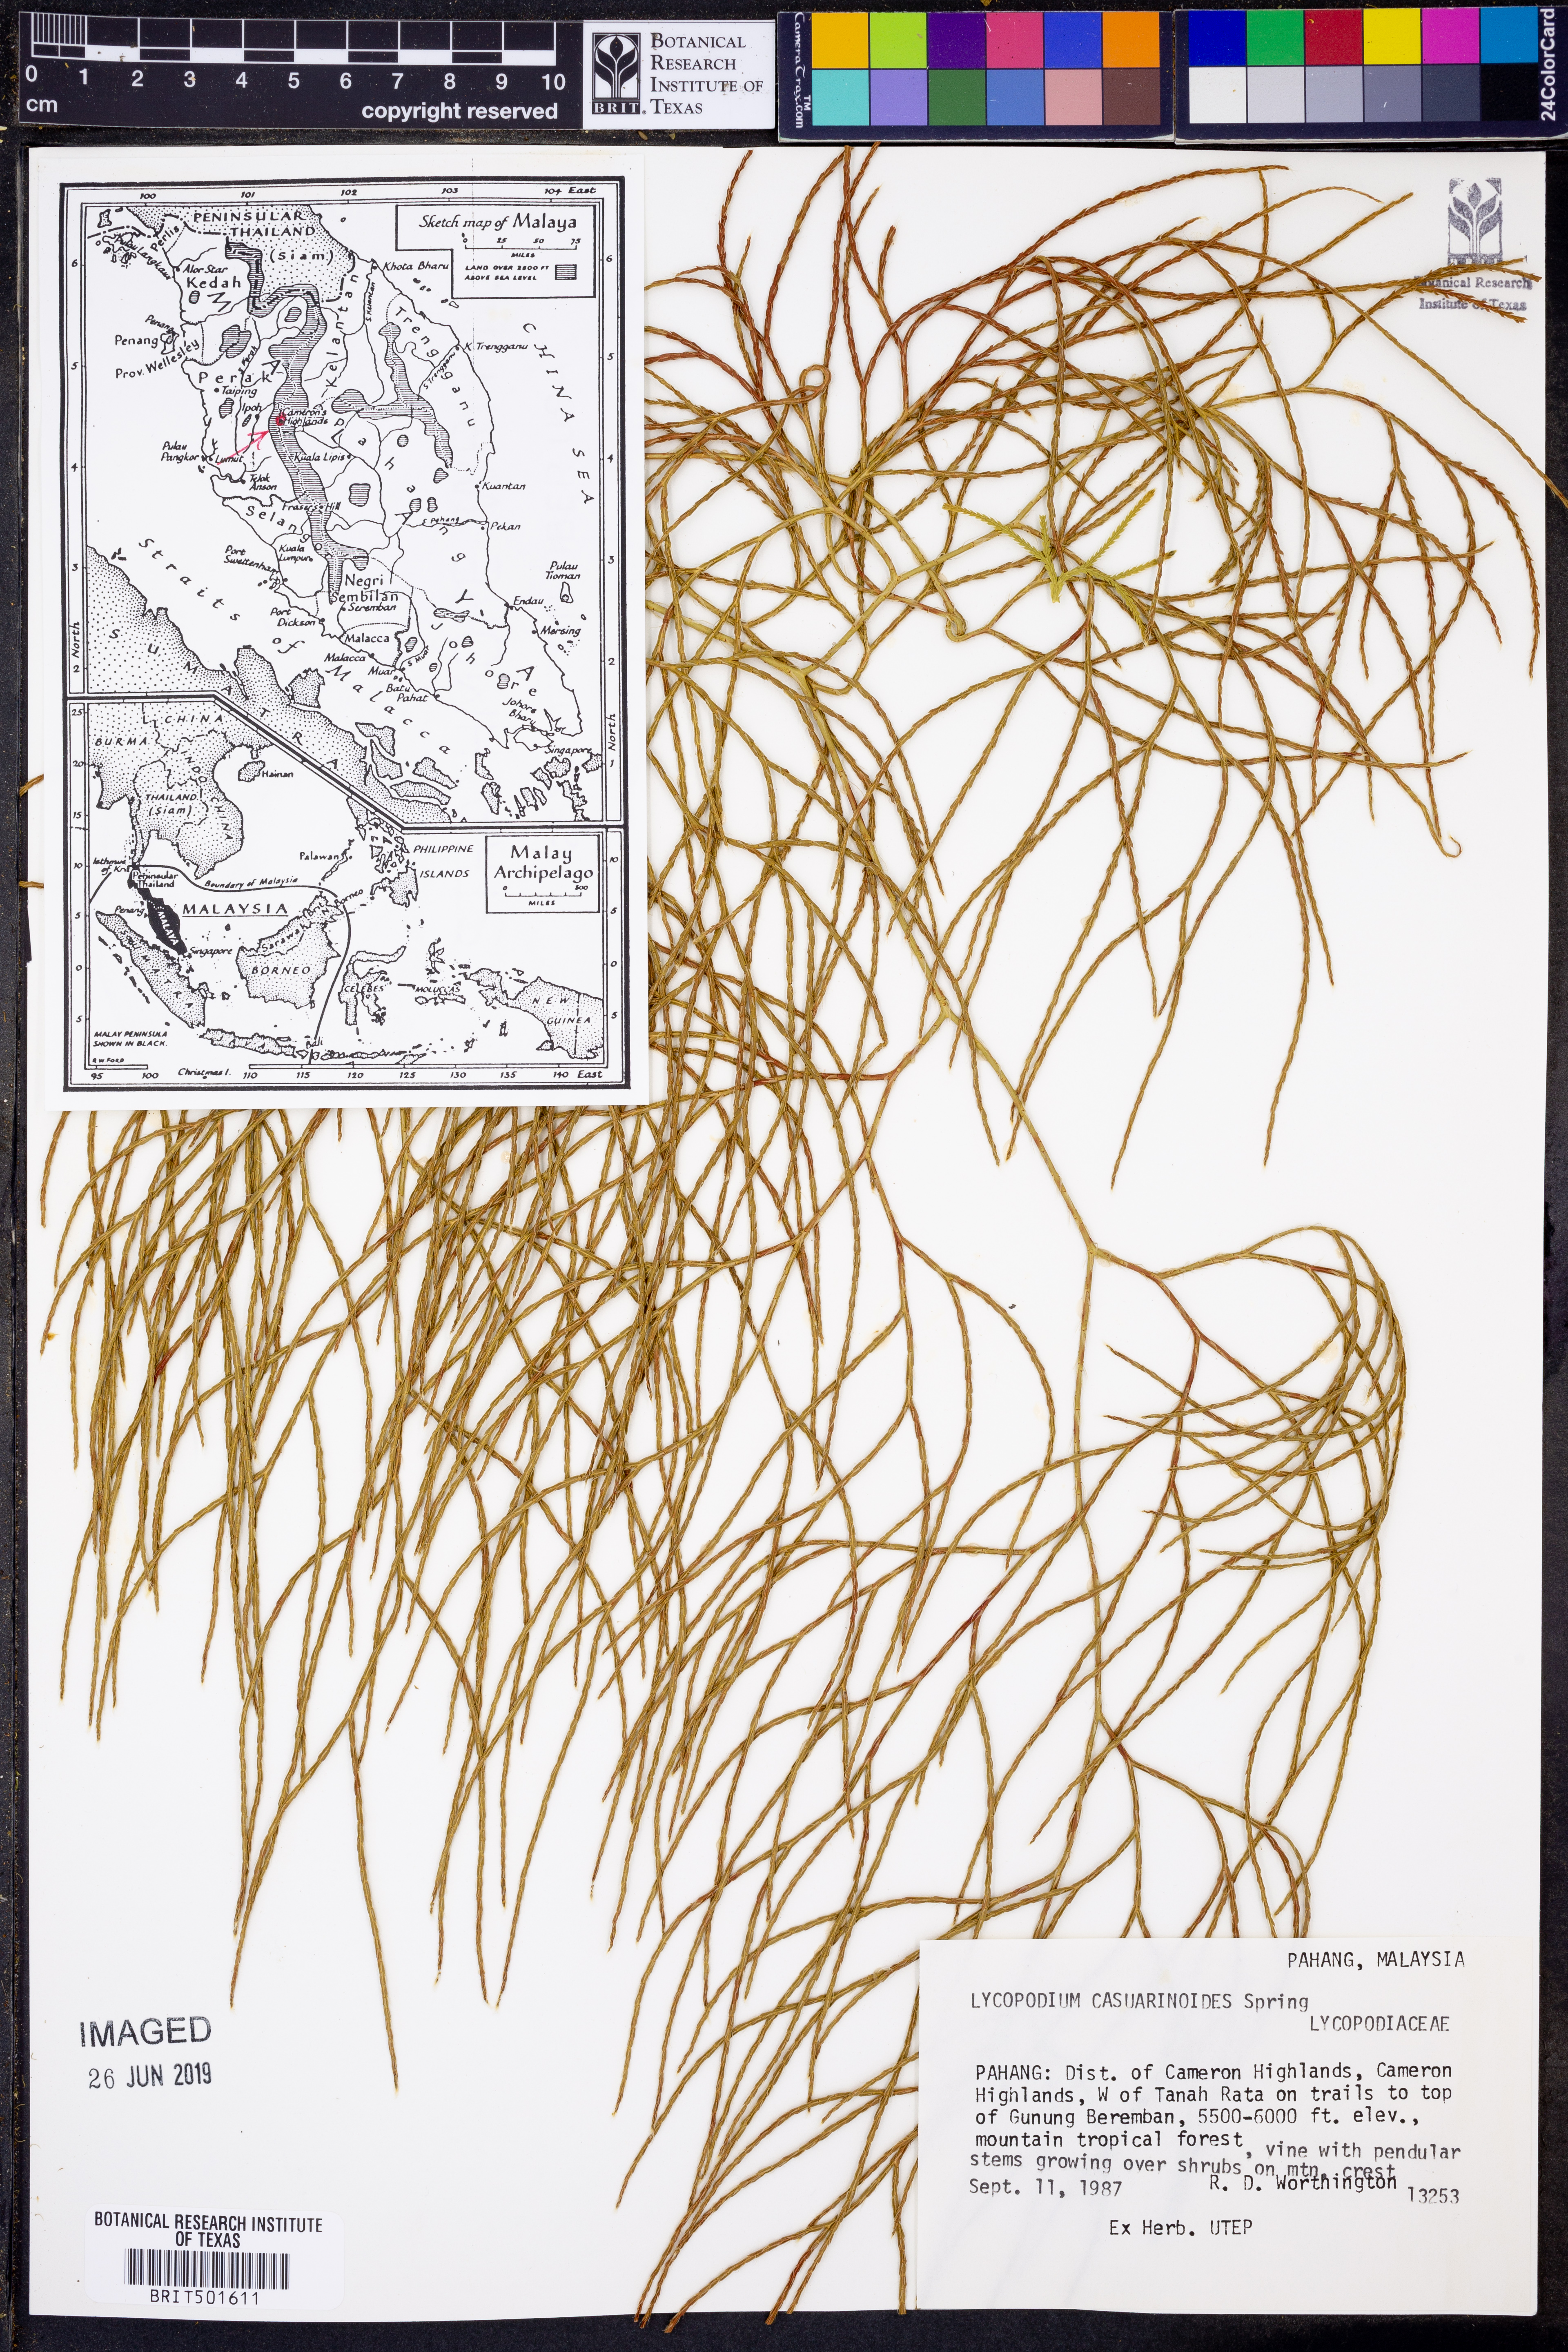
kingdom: Plantae
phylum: Tracheophyta
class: Lycopodiopsida
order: Lycopodiales
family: Lycopodiaceae
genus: Lycopodiastrum
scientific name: Lycopodiastrum casuarinoides
